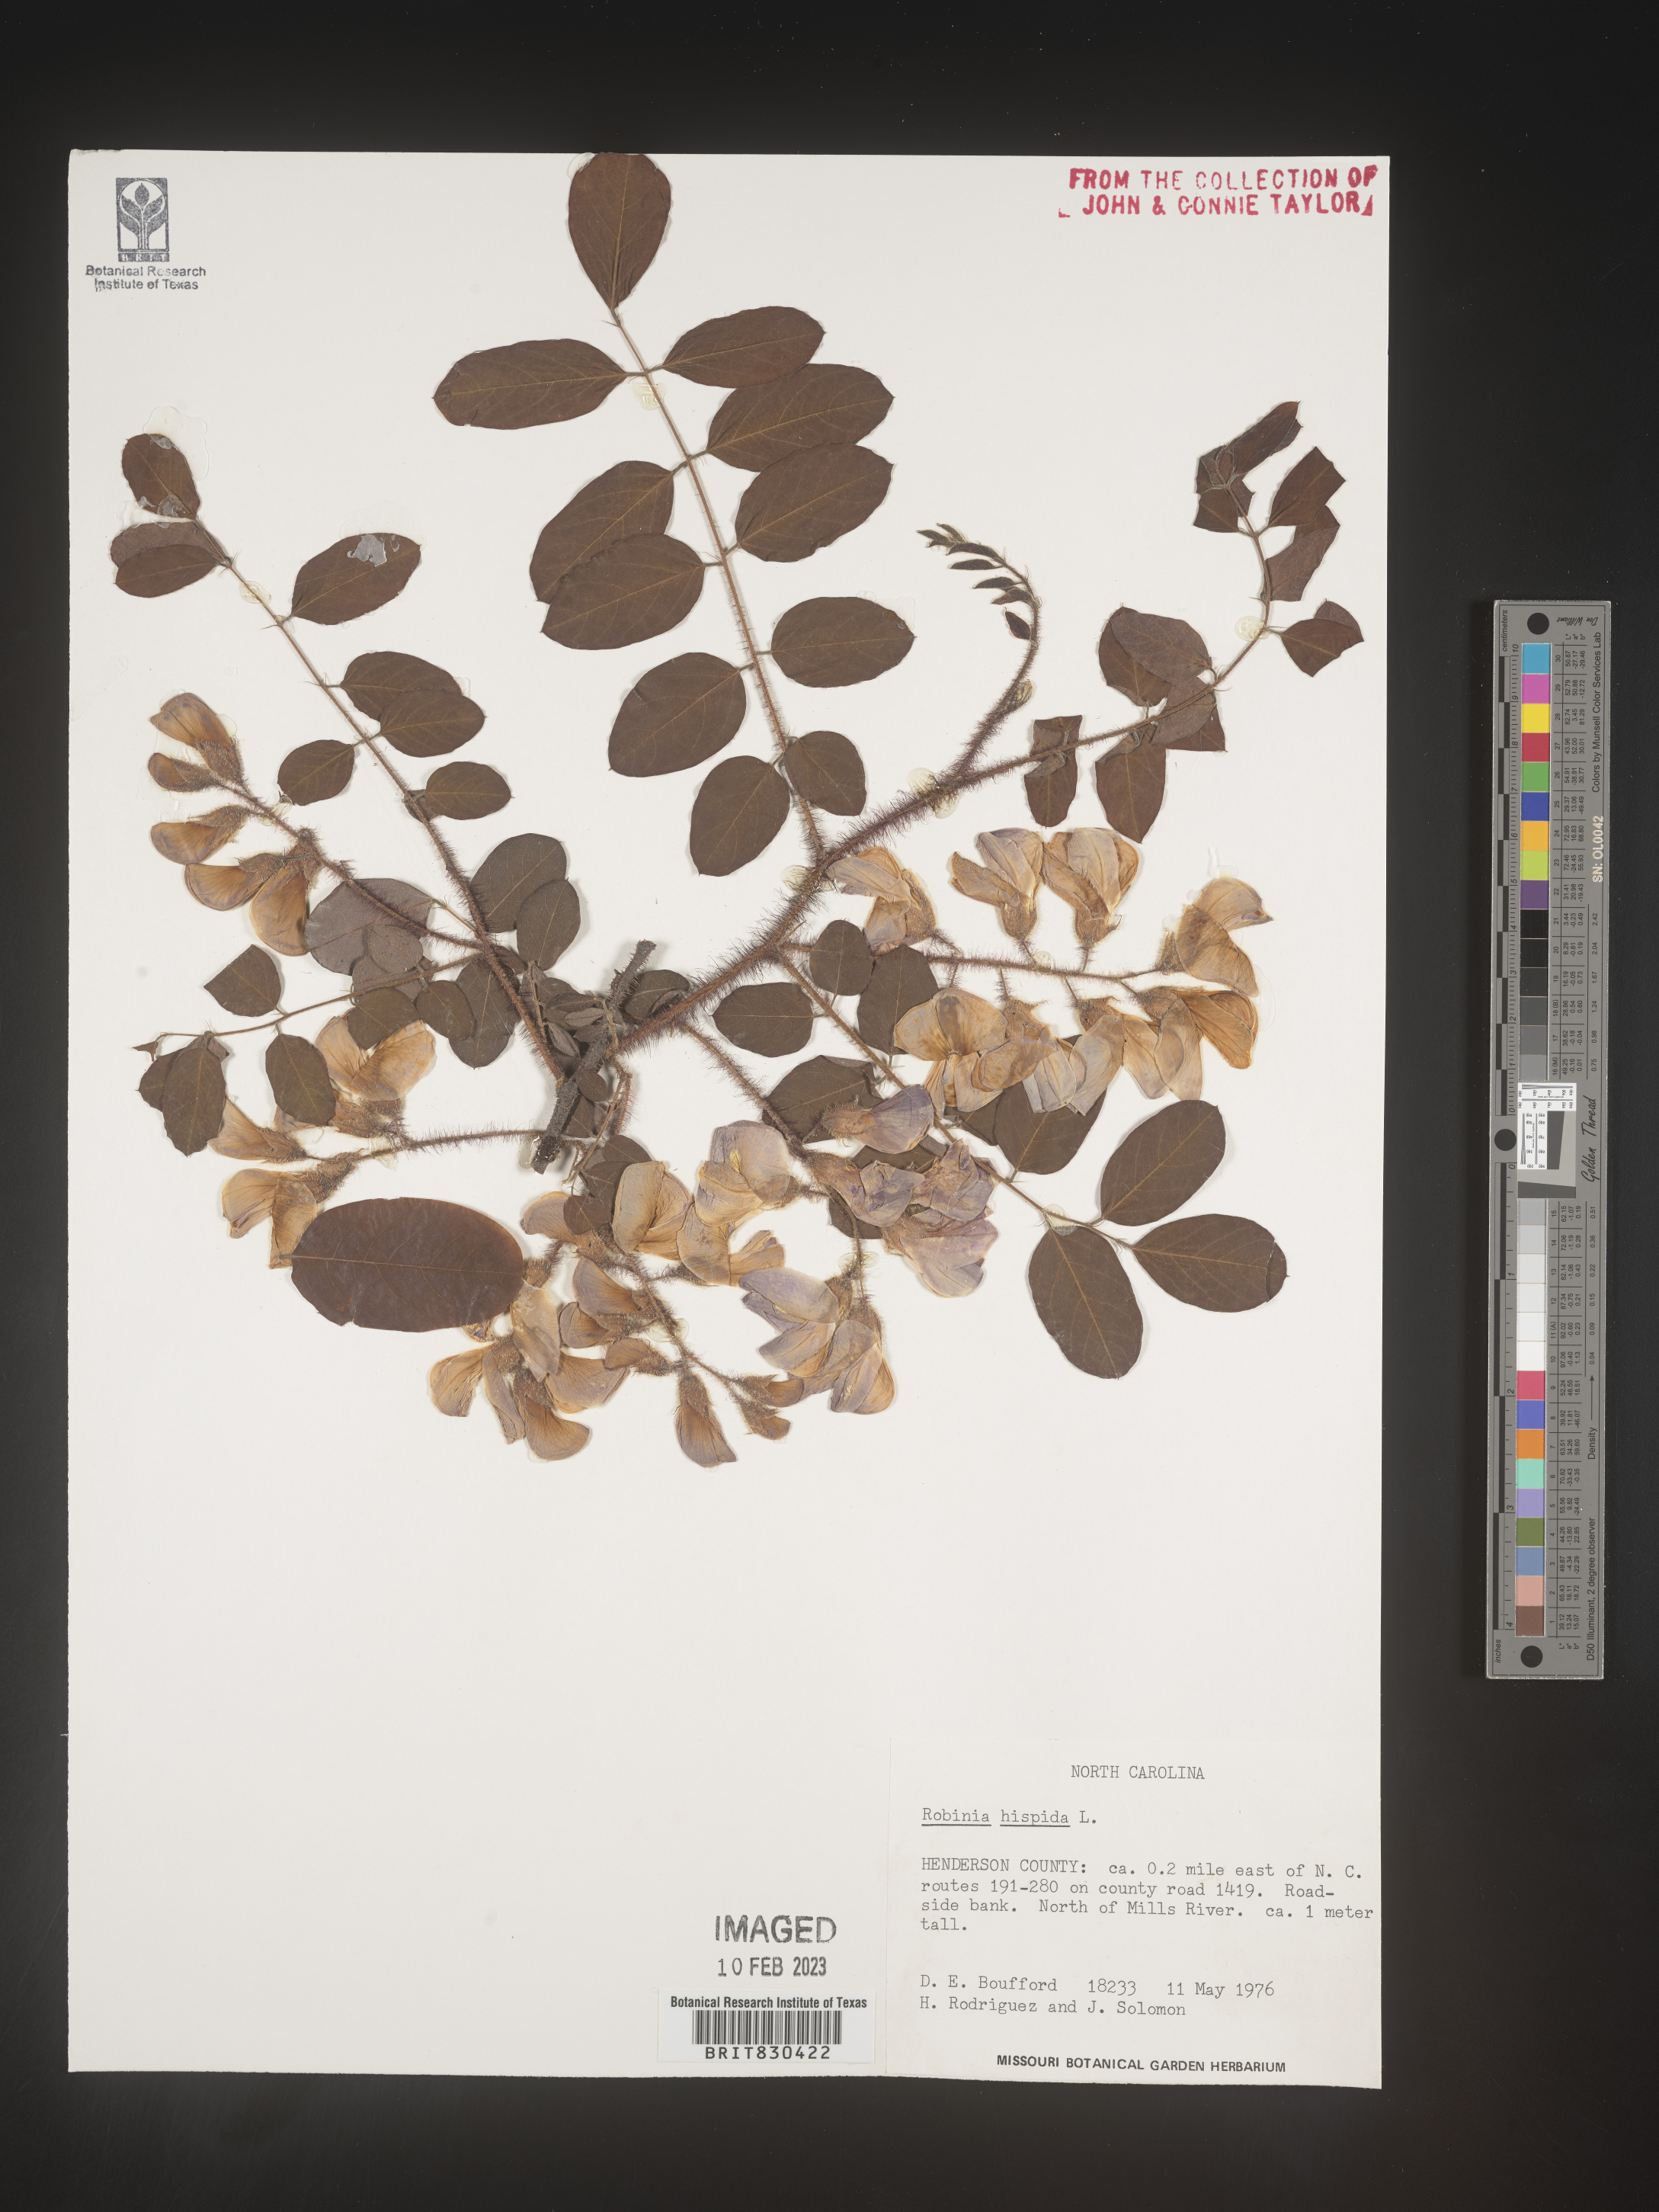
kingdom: Plantae
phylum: Tracheophyta
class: Magnoliopsida
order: Fabales
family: Fabaceae
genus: Robinia
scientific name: Robinia hispida
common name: Bristly locust
